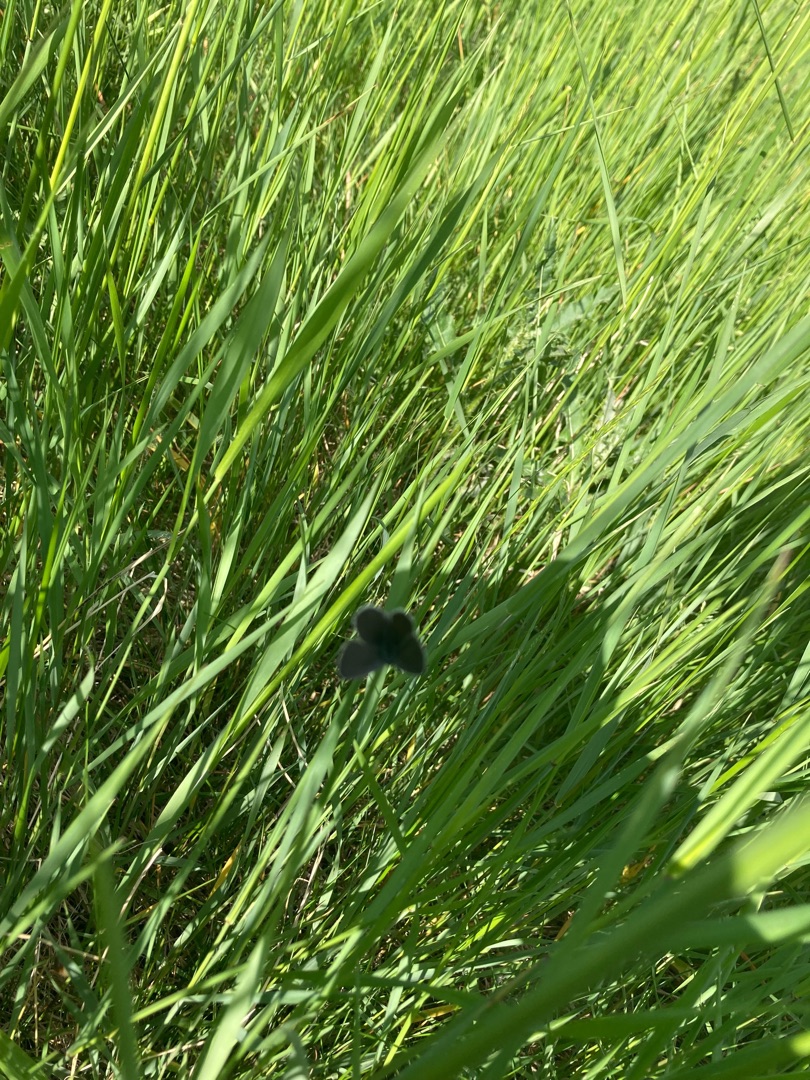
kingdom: Animalia
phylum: Arthropoda
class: Insecta
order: Lepidoptera
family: Lycaenidae
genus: Cupido
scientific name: Cupido minimus
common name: Dværgblåfugl
